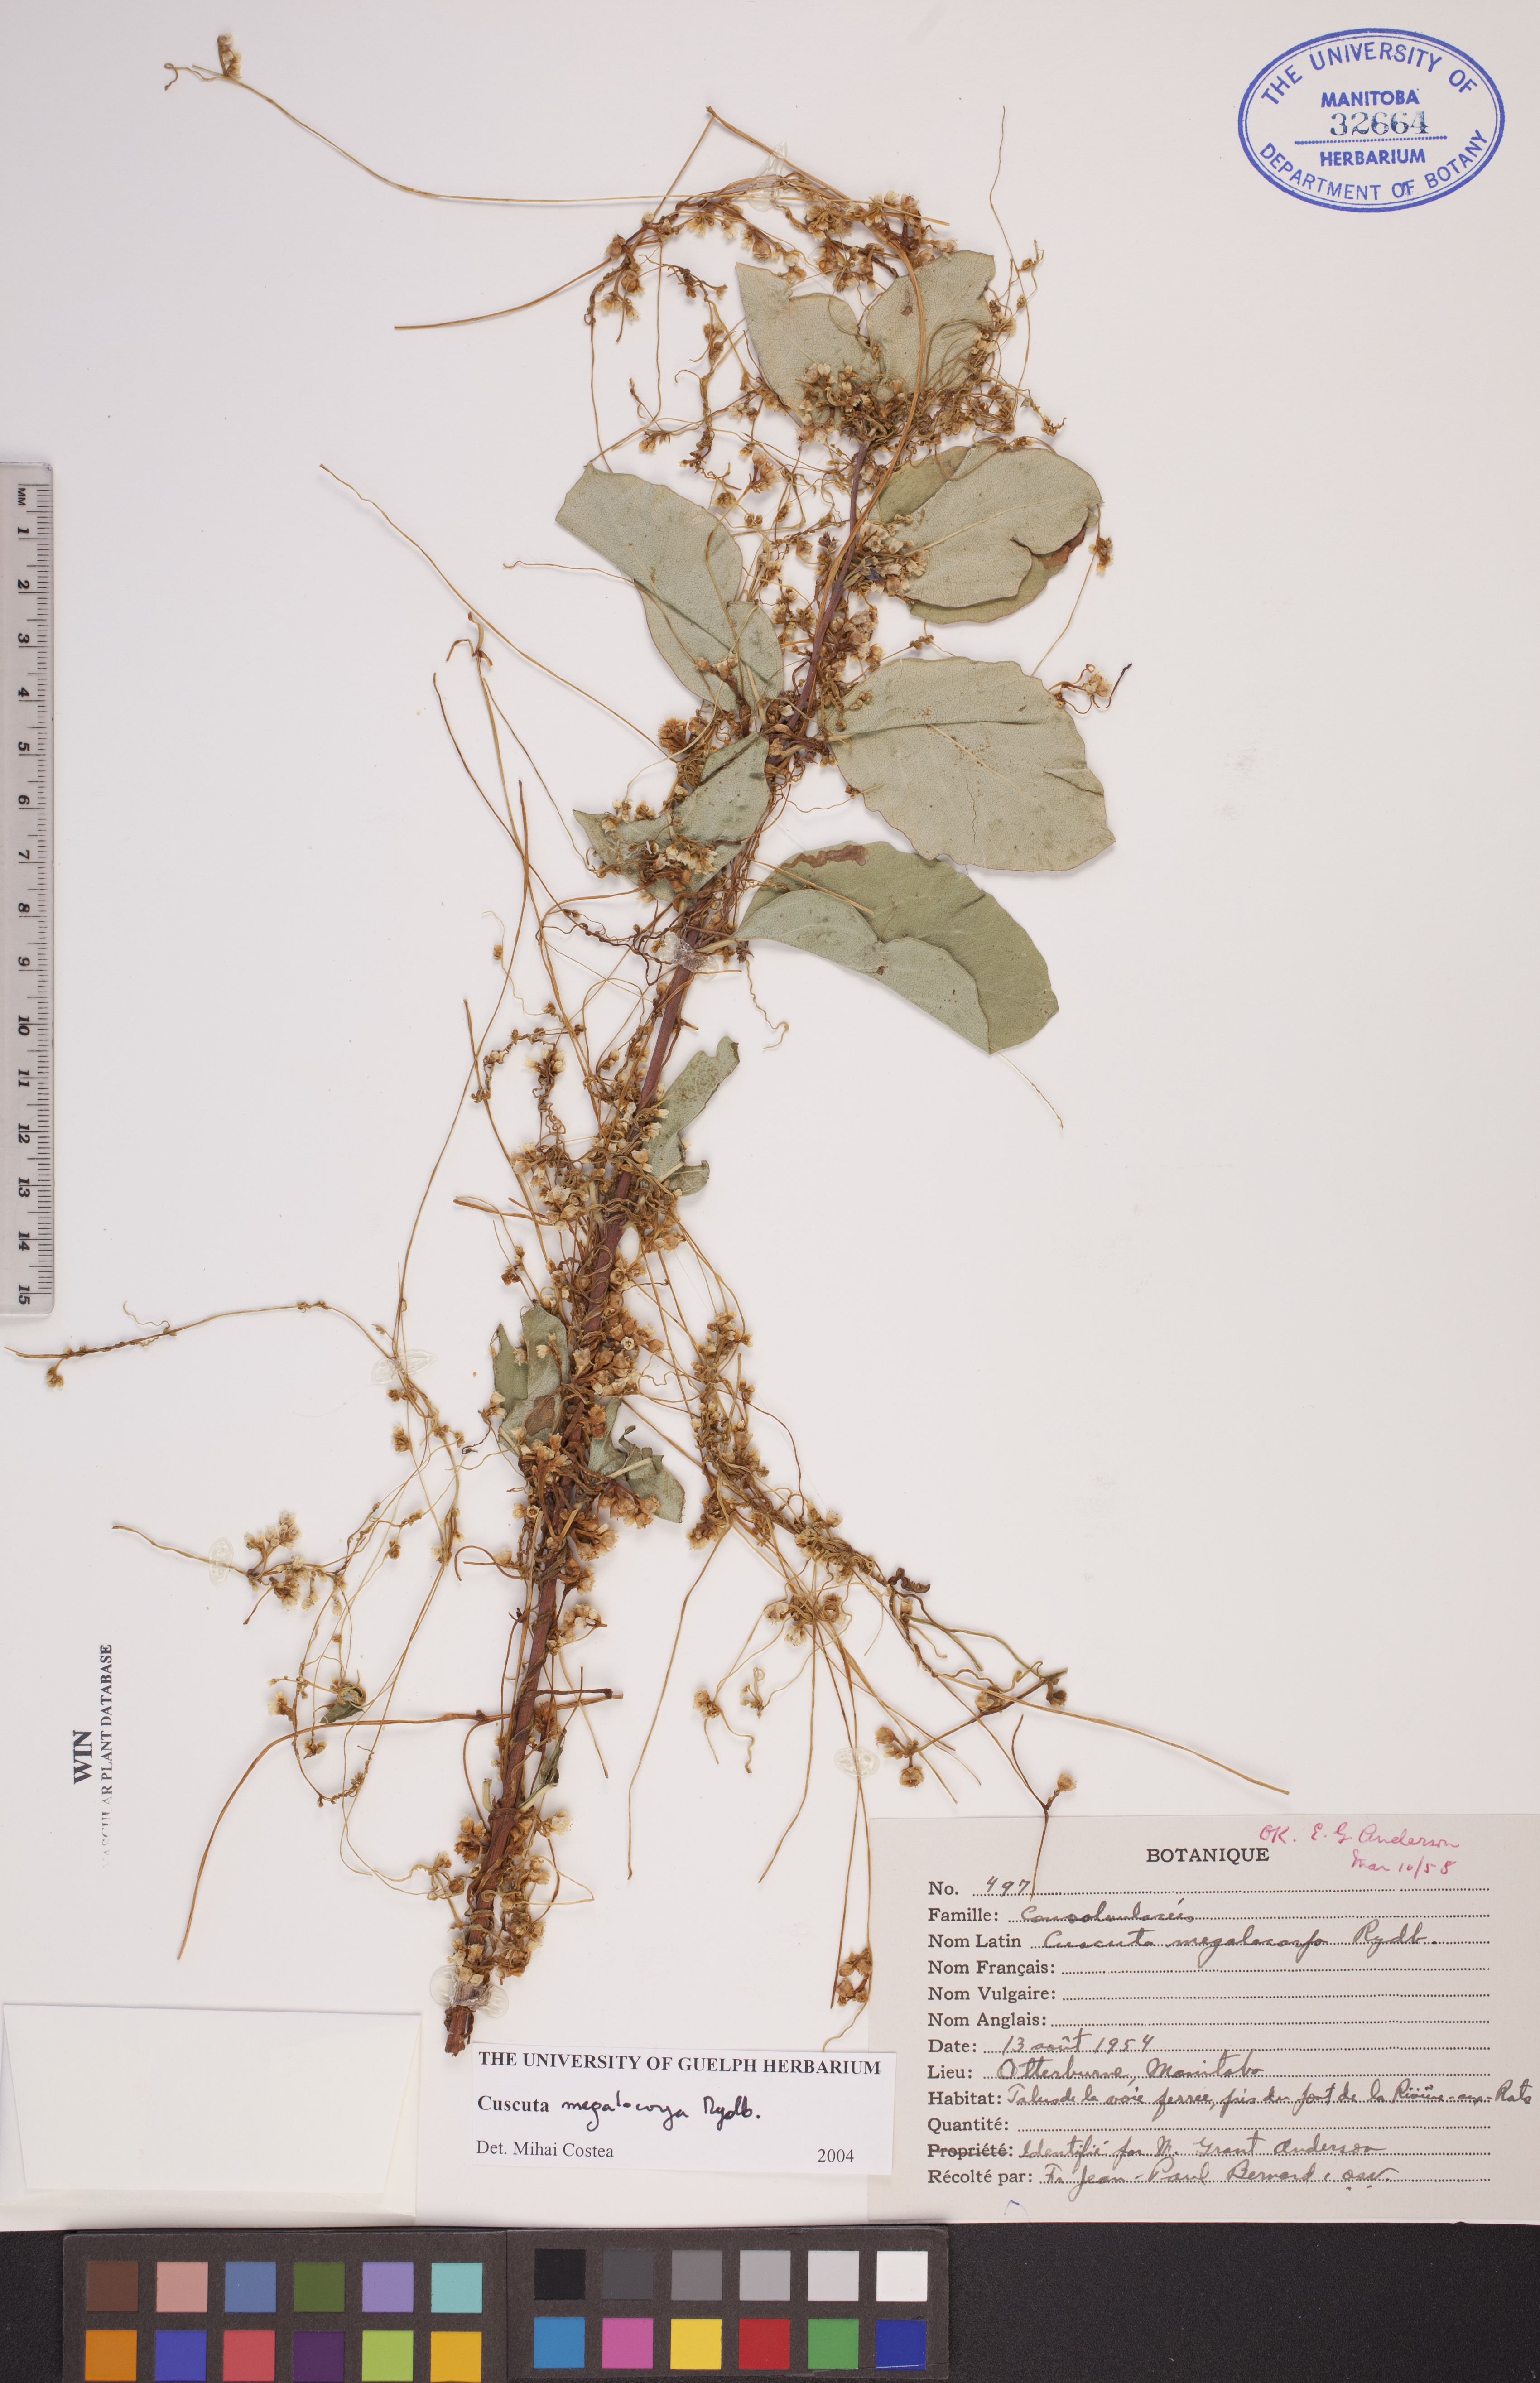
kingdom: Plantae
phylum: Tracheophyta
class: Magnoliopsida
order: Solanales
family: Convolvulaceae
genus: Cuscuta
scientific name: Cuscuta umbrosa
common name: Bigfruit dodder
